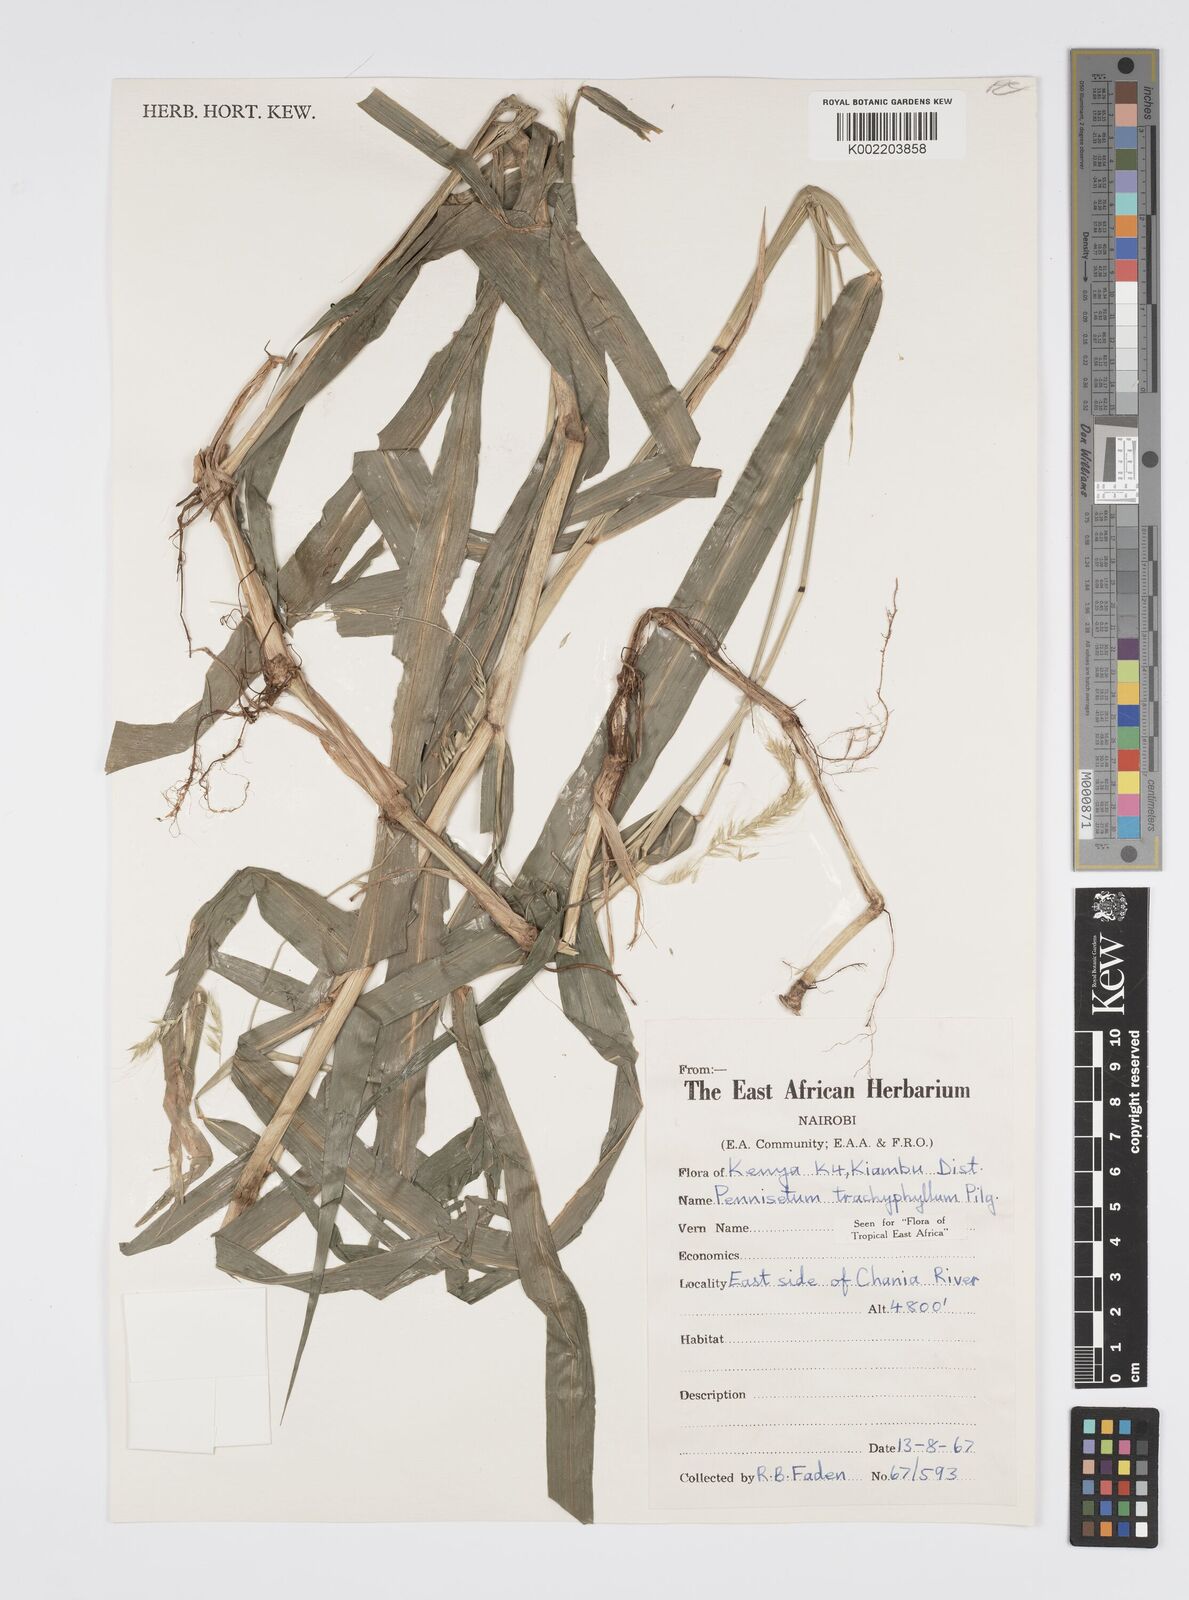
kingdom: Plantae
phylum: Tracheophyta
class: Liliopsida
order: Poales
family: Poaceae
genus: Cenchrus
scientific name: Cenchrus trachyphyllus
